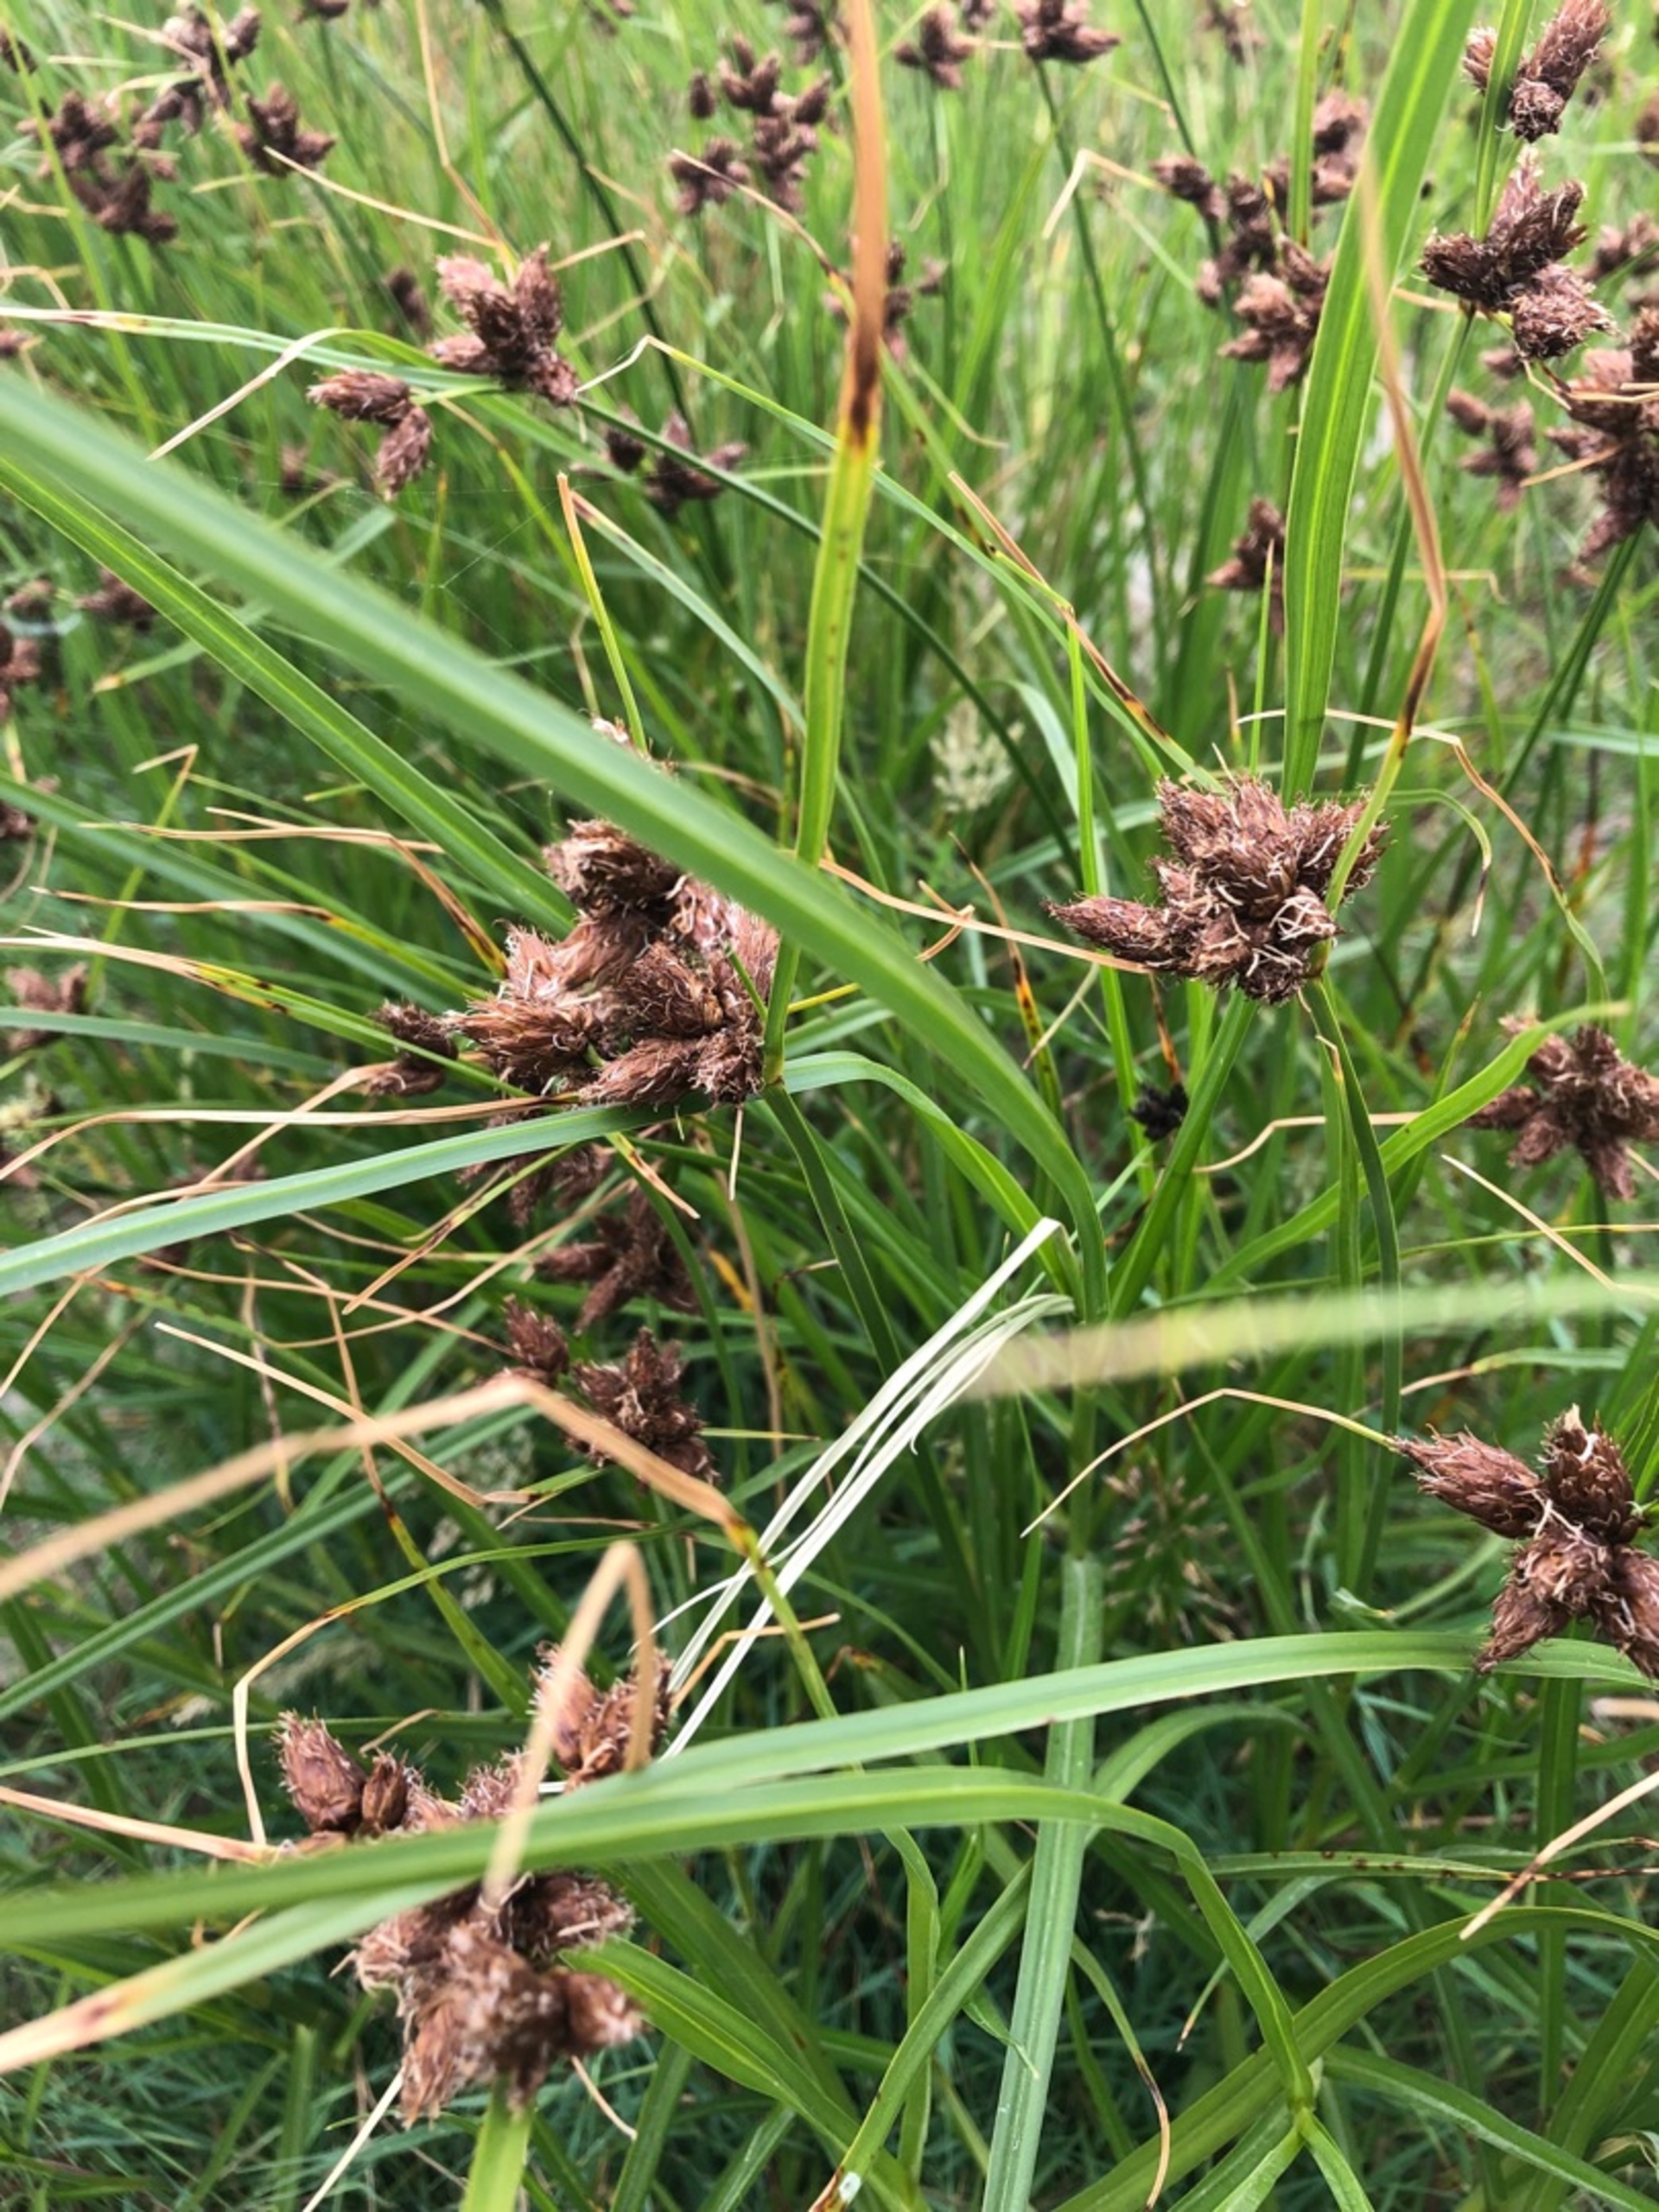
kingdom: Plantae
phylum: Tracheophyta
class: Liliopsida
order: Poales
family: Cyperaceae
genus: Bolboschoenus
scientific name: Bolboschoenus maritimus
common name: Strand-kogleaks
